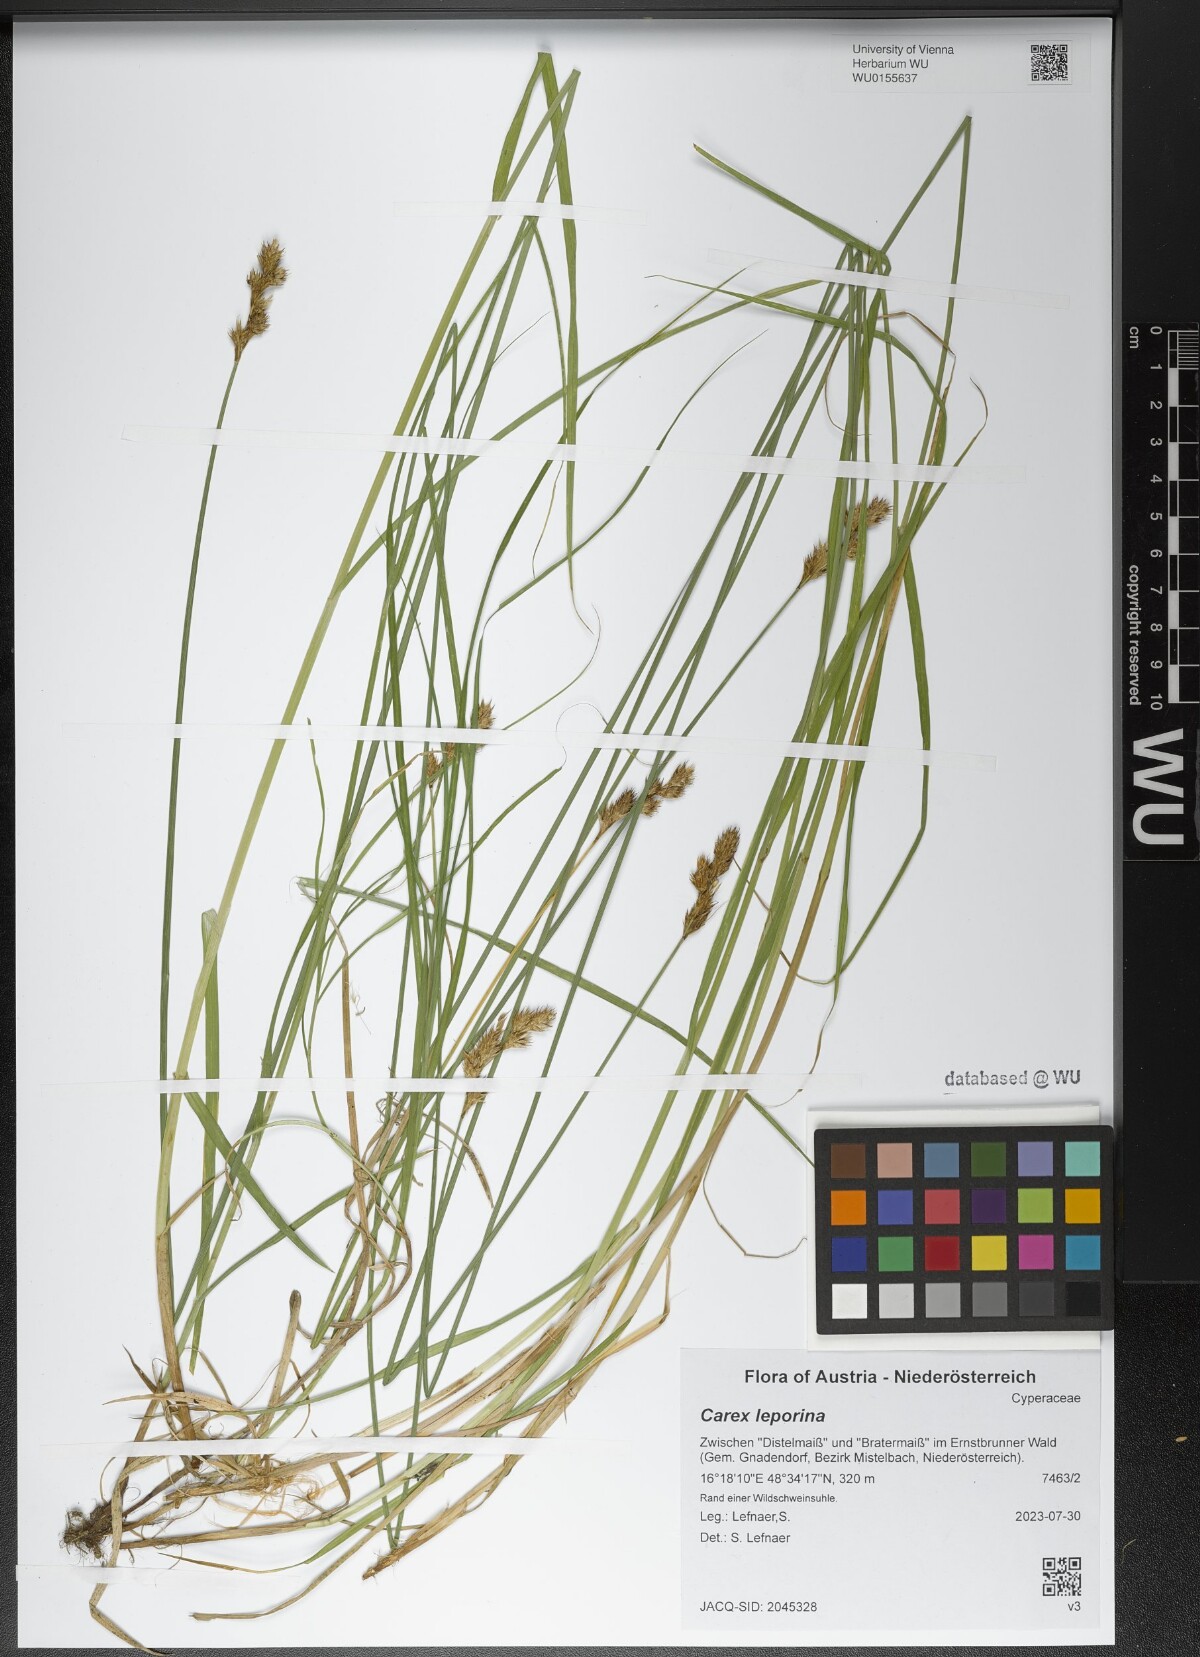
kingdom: Plantae
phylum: Tracheophyta
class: Liliopsida
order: Poales
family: Cyperaceae
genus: Carex
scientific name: Carex leporina
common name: Oval sedge
